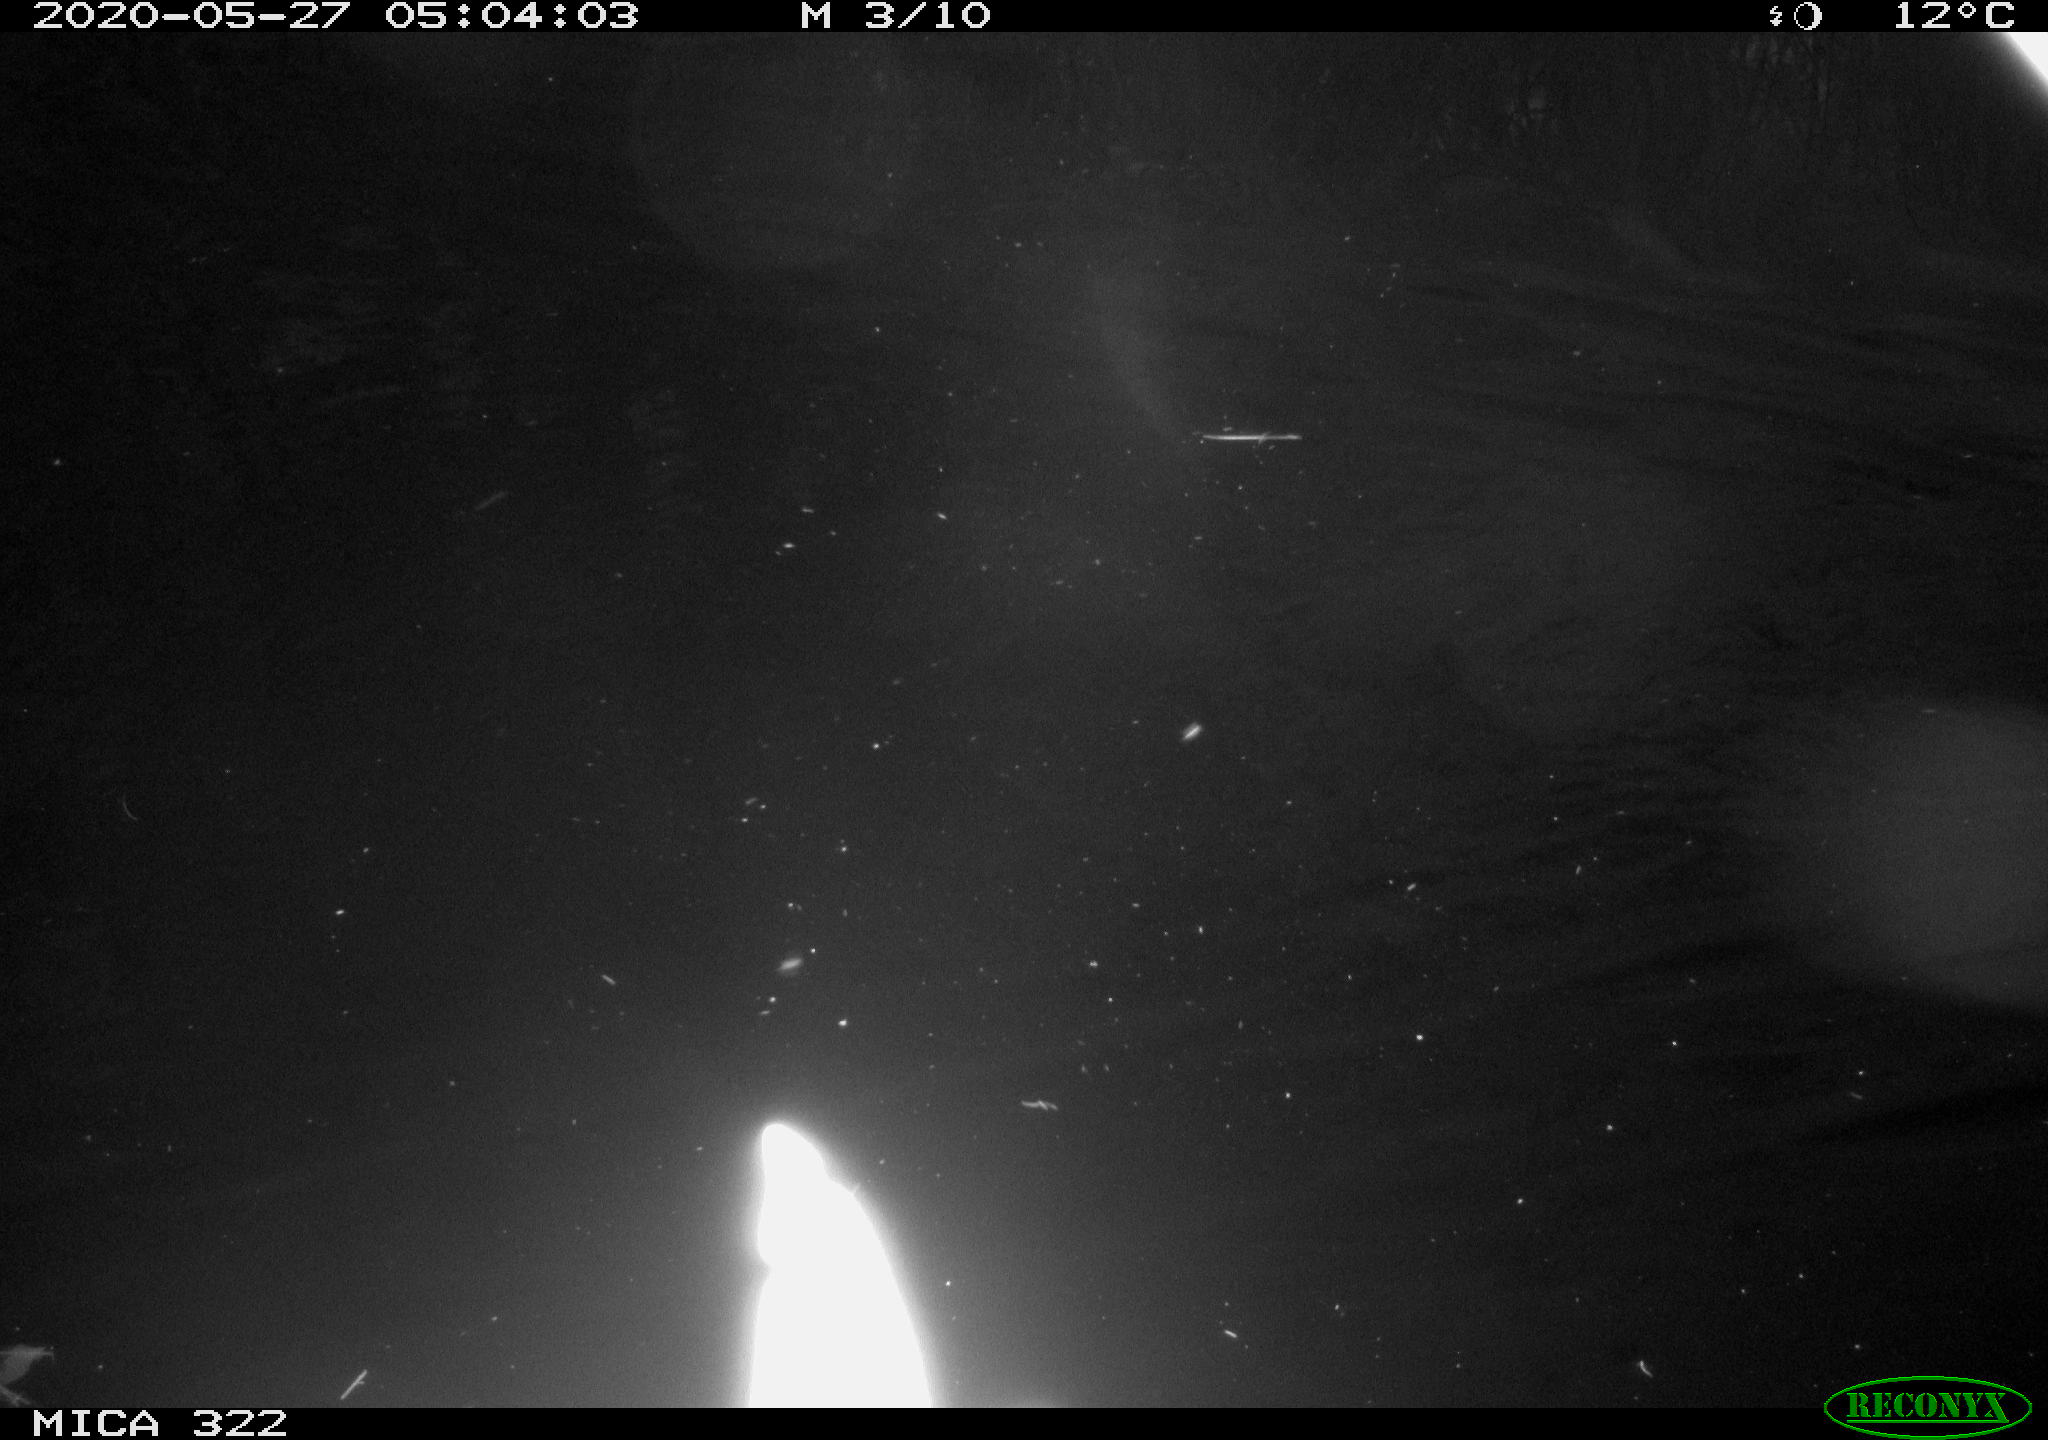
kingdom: Animalia
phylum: Chordata
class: Aves
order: Anseriformes
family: Anatidae
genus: Anas
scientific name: Anas platyrhynchos
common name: Mallard
